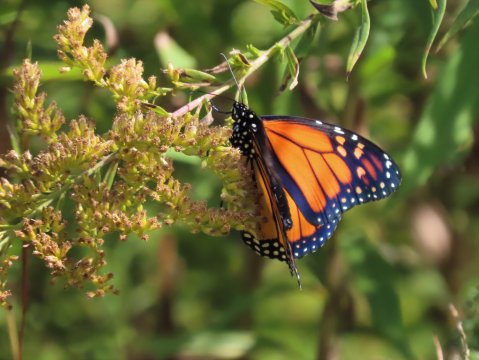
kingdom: Animalia
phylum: Arthropoda
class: Insecta
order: Lepidoptera
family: Nymphalidae
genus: Danaus
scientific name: Danaus plexippus
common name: Monarch
